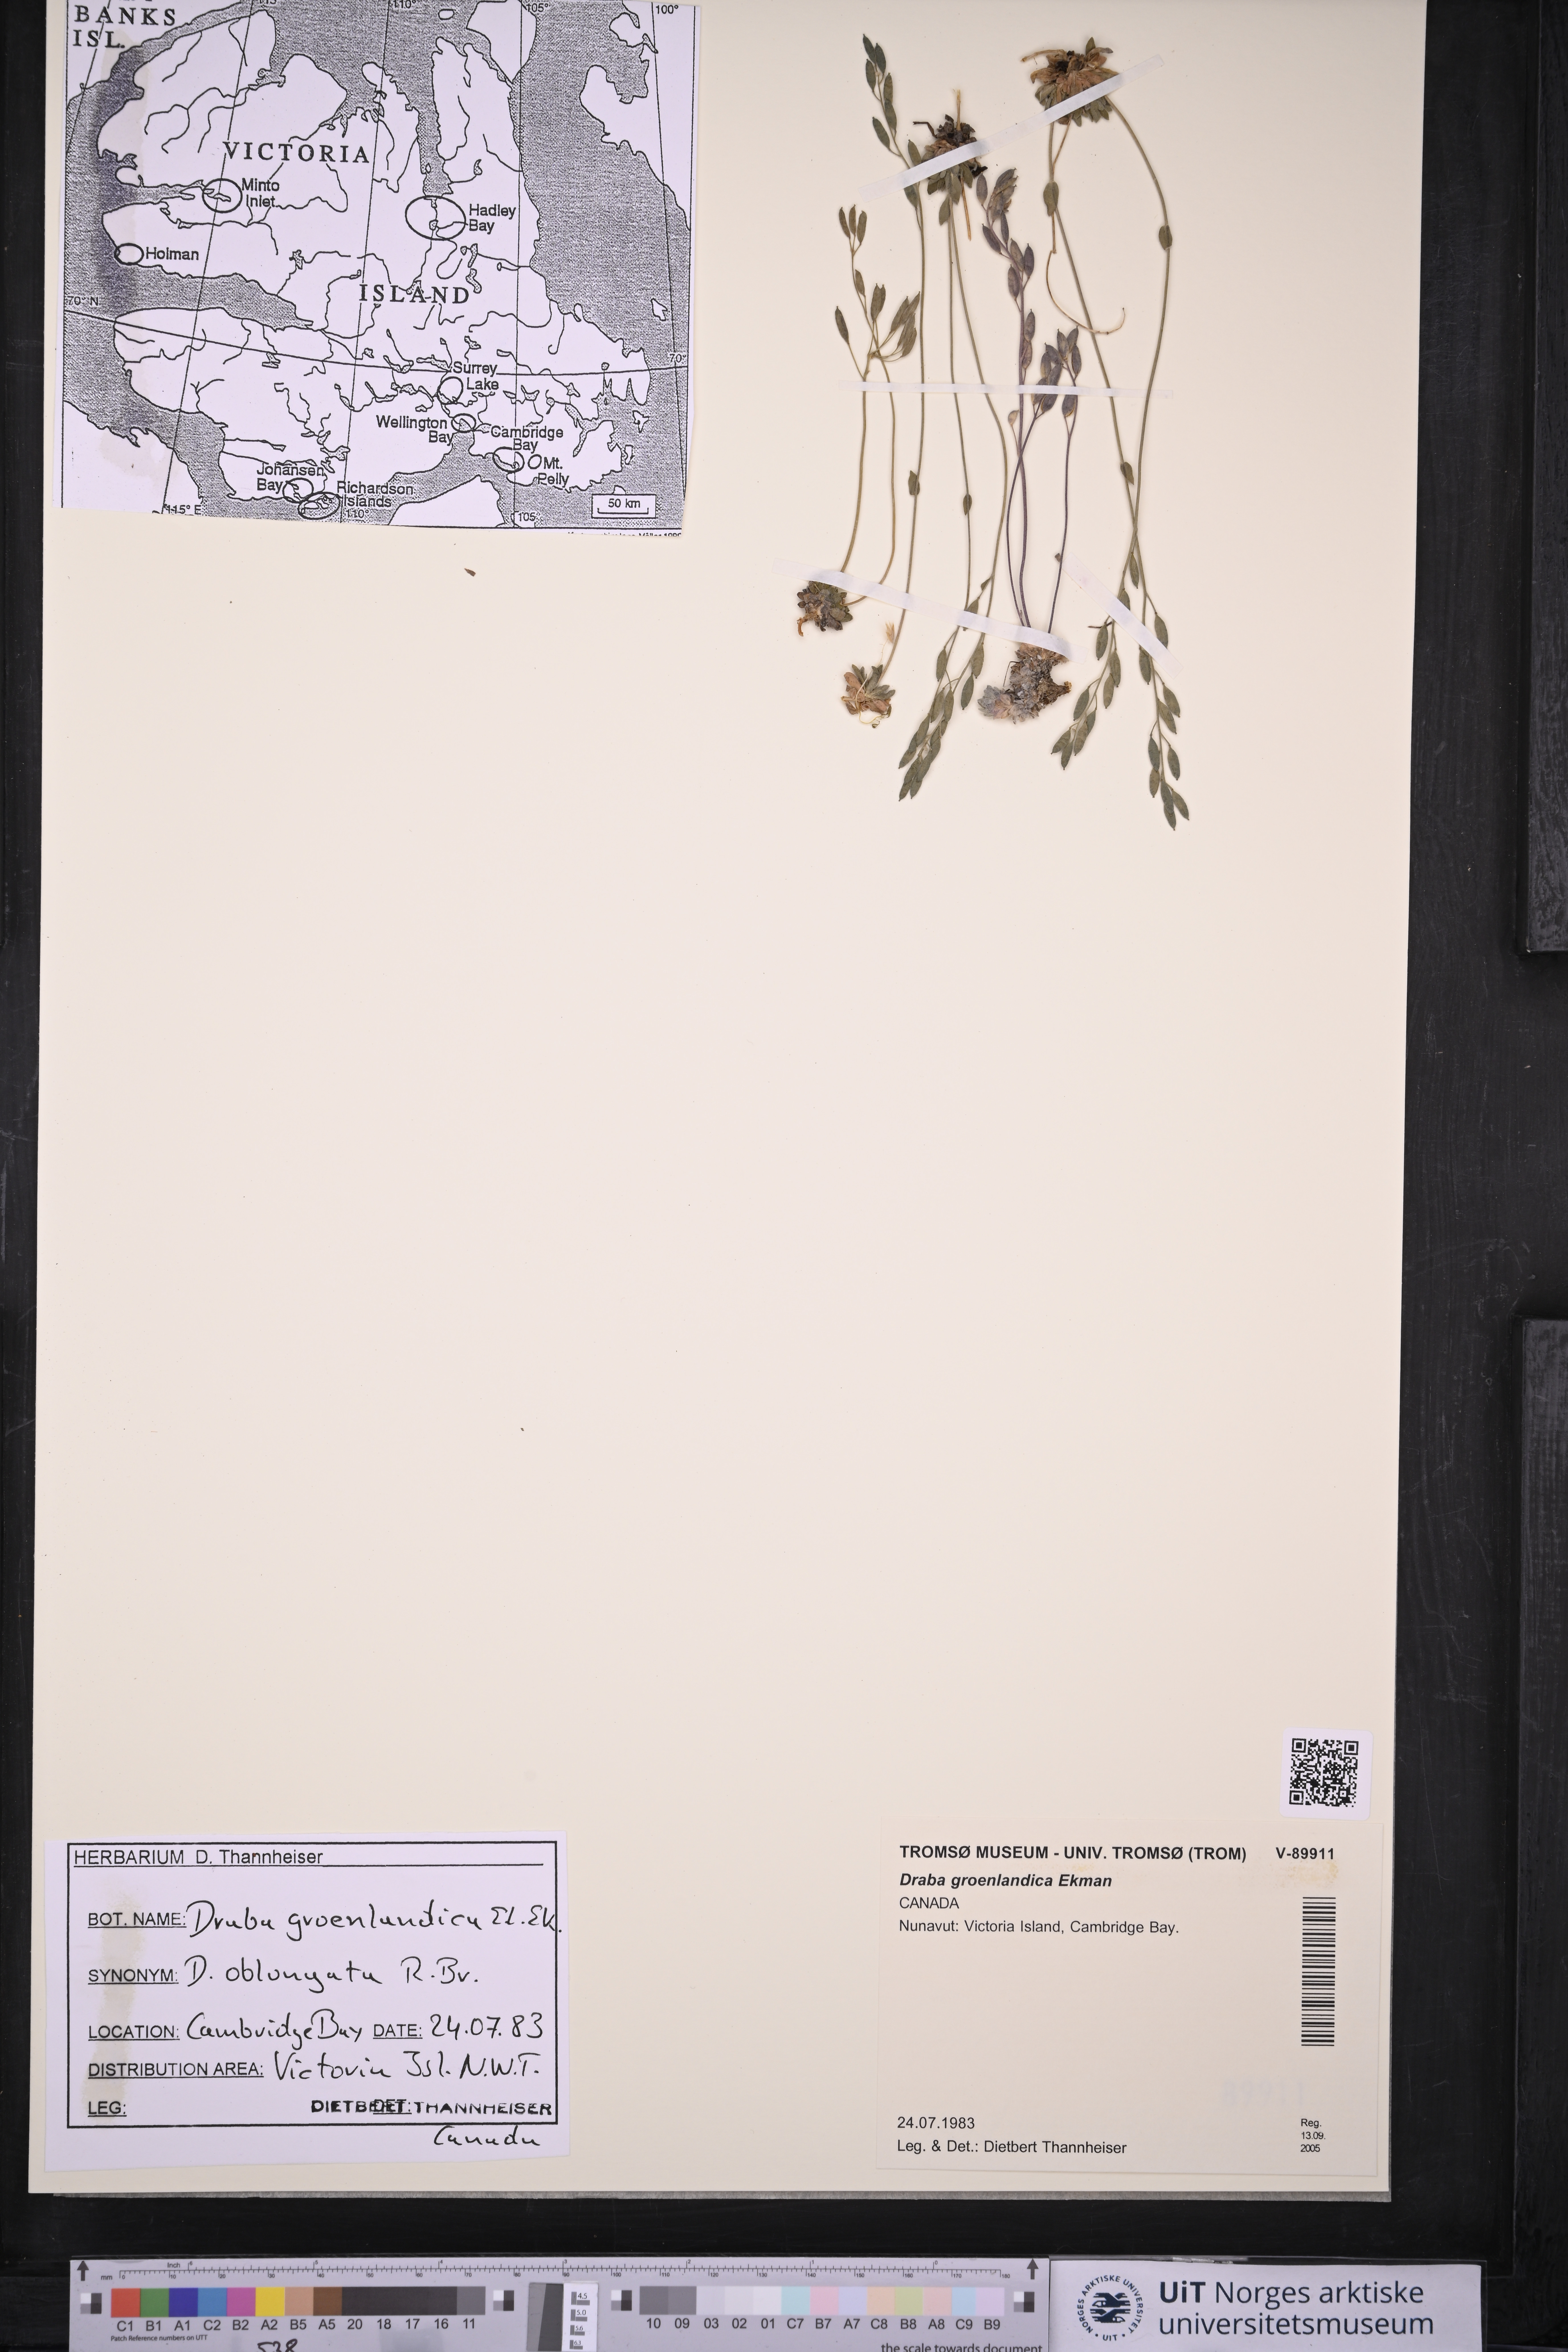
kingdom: Plantae
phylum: Tracheophyta
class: Magnoliopsida
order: Brassicales
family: Brassicaceae
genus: Draba
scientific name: Draba oblongata
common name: Canadian arctic draba
